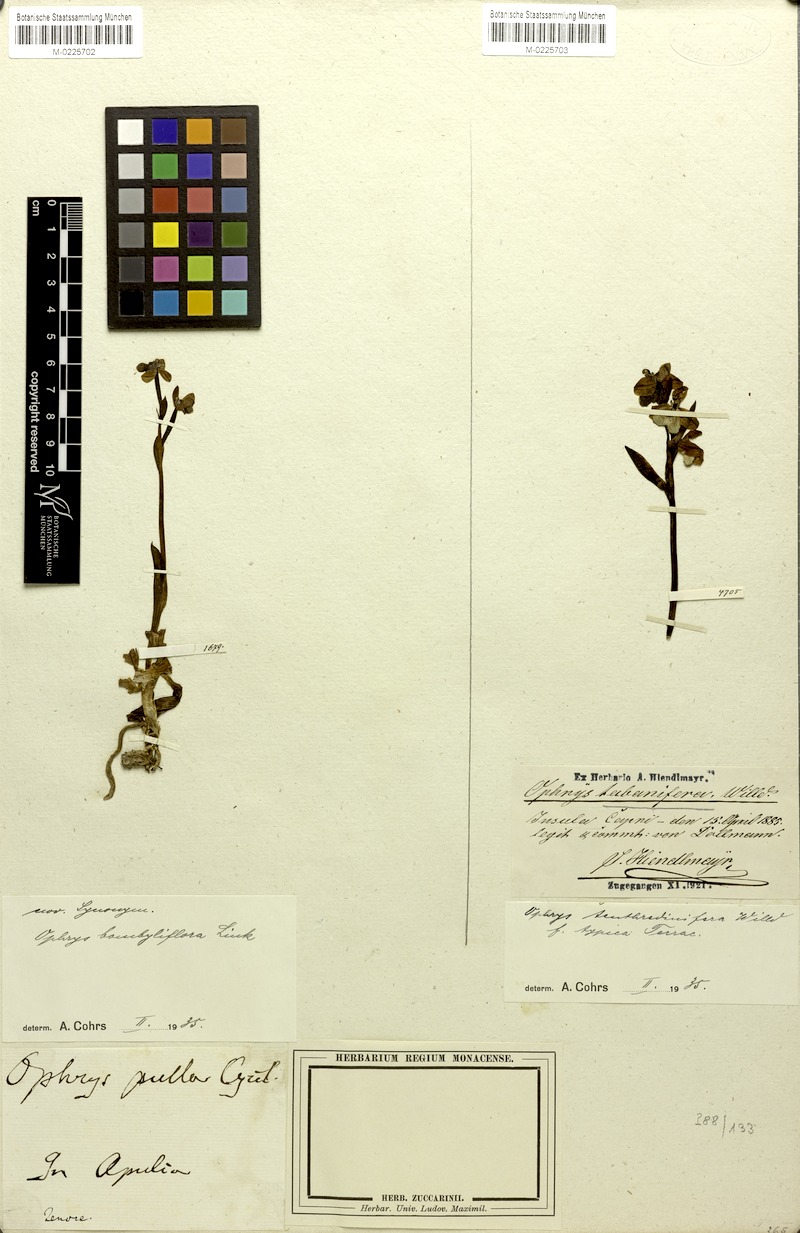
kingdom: Plantae
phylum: Tracheophyta
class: Liliopsida
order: Asparagales
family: Orchidaceae
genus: Ophrys
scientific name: Ophrys bombyliflora
